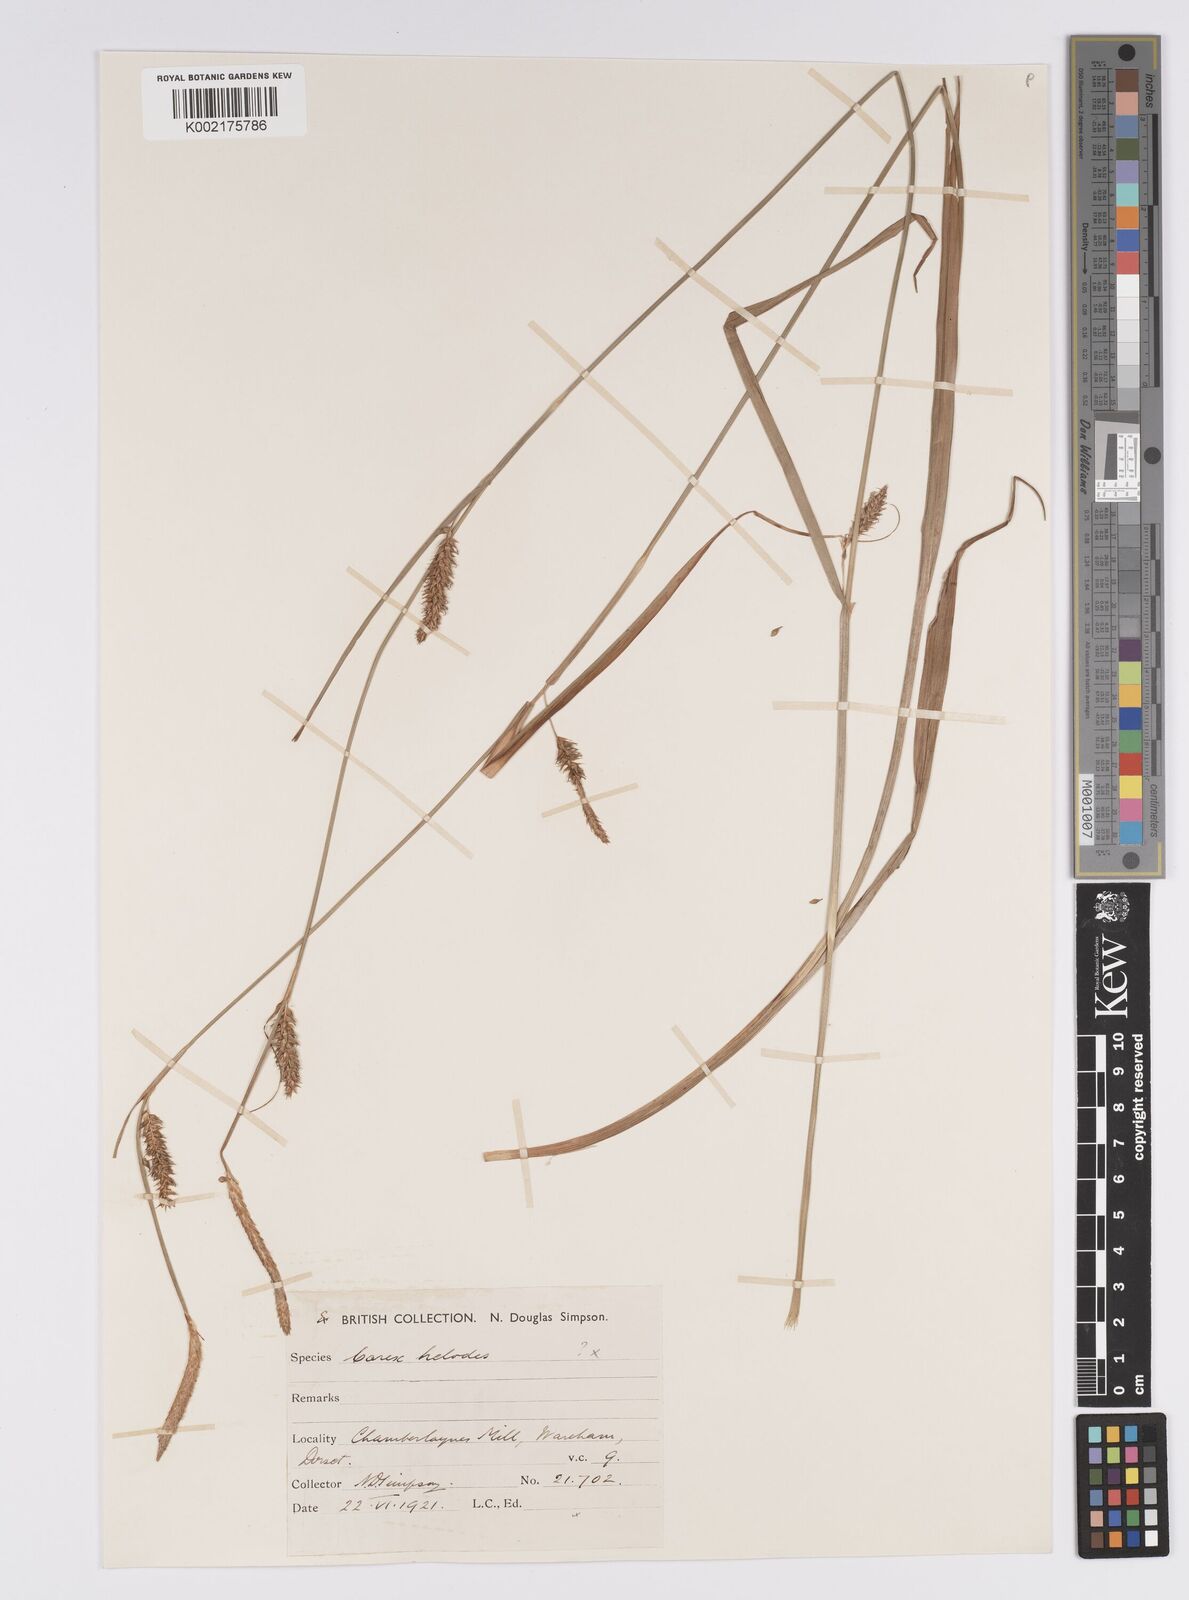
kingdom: Plantae
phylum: Tracheophyta
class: Liliopsida
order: Poales
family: Cyperaceae
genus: Carex
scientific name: Carex laevigata
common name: Smooth-stalked sedge
